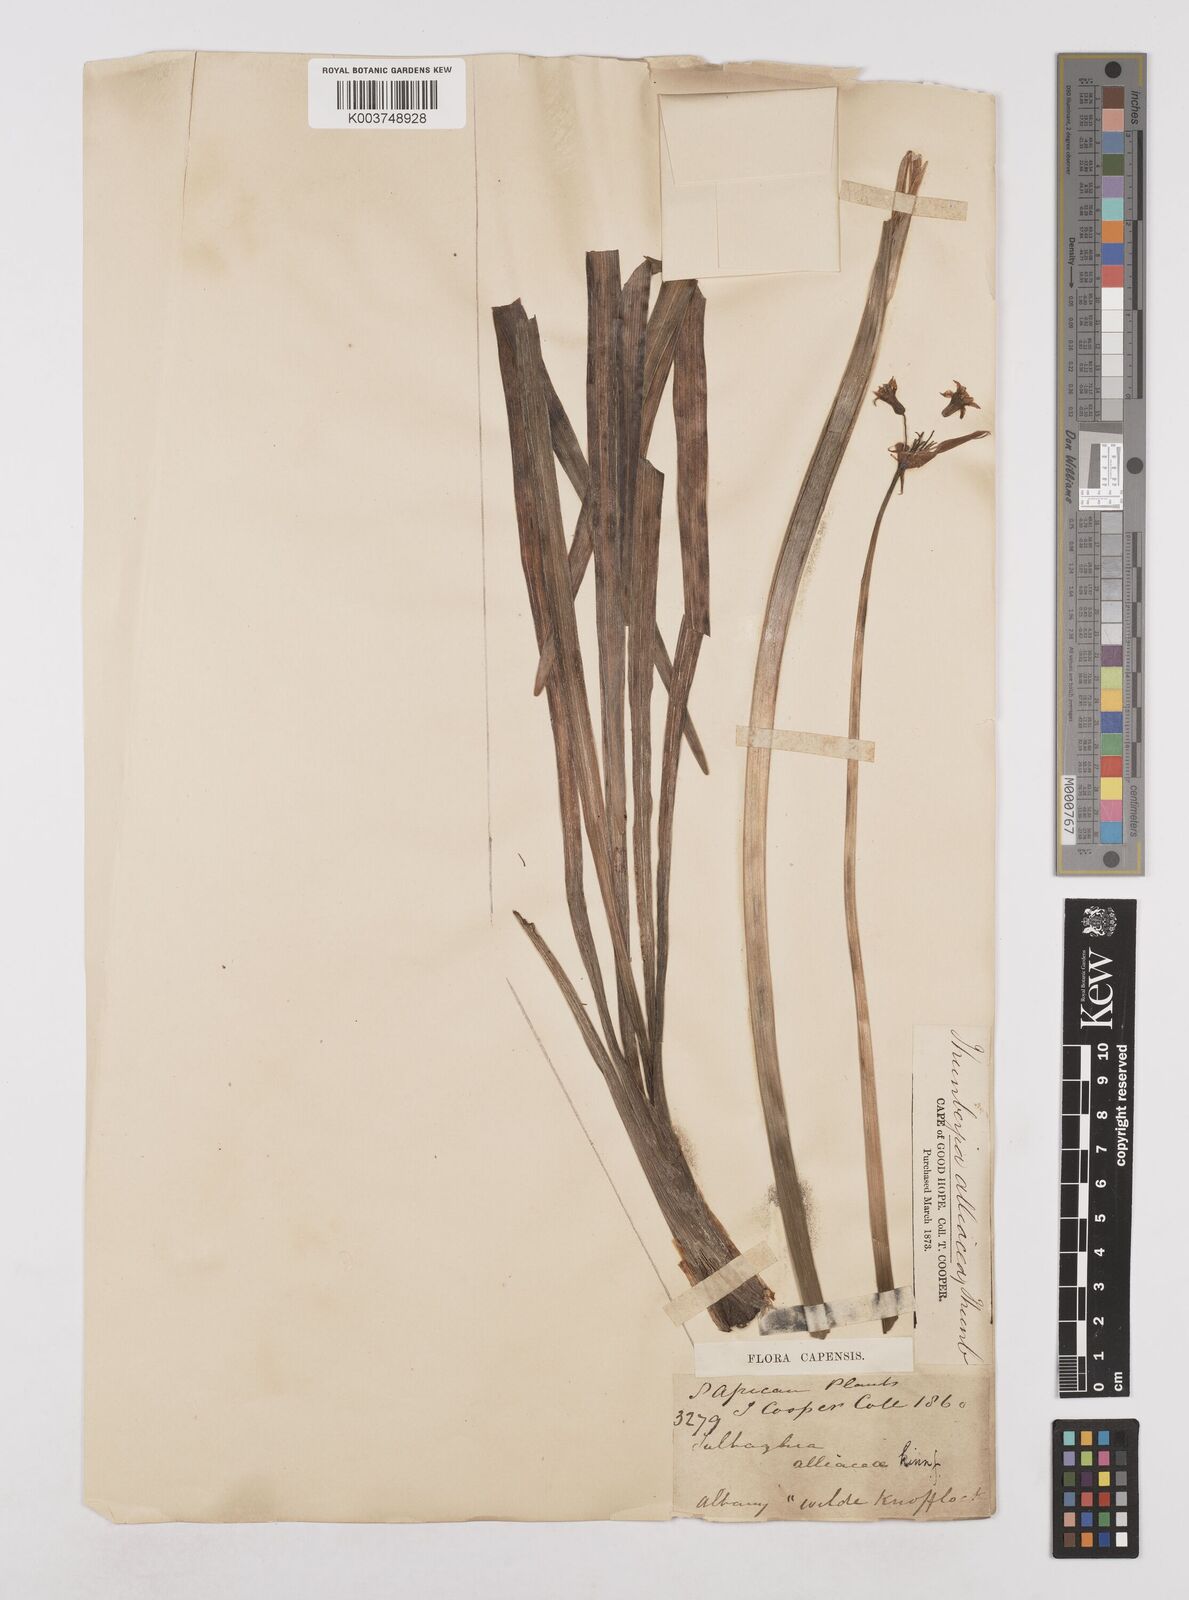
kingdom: Plantae
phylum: Tracheophyta
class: Liliopsida
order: Asparagales
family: Amaryllidaceae
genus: Tulbaghia
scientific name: Tulbaghia capensis
